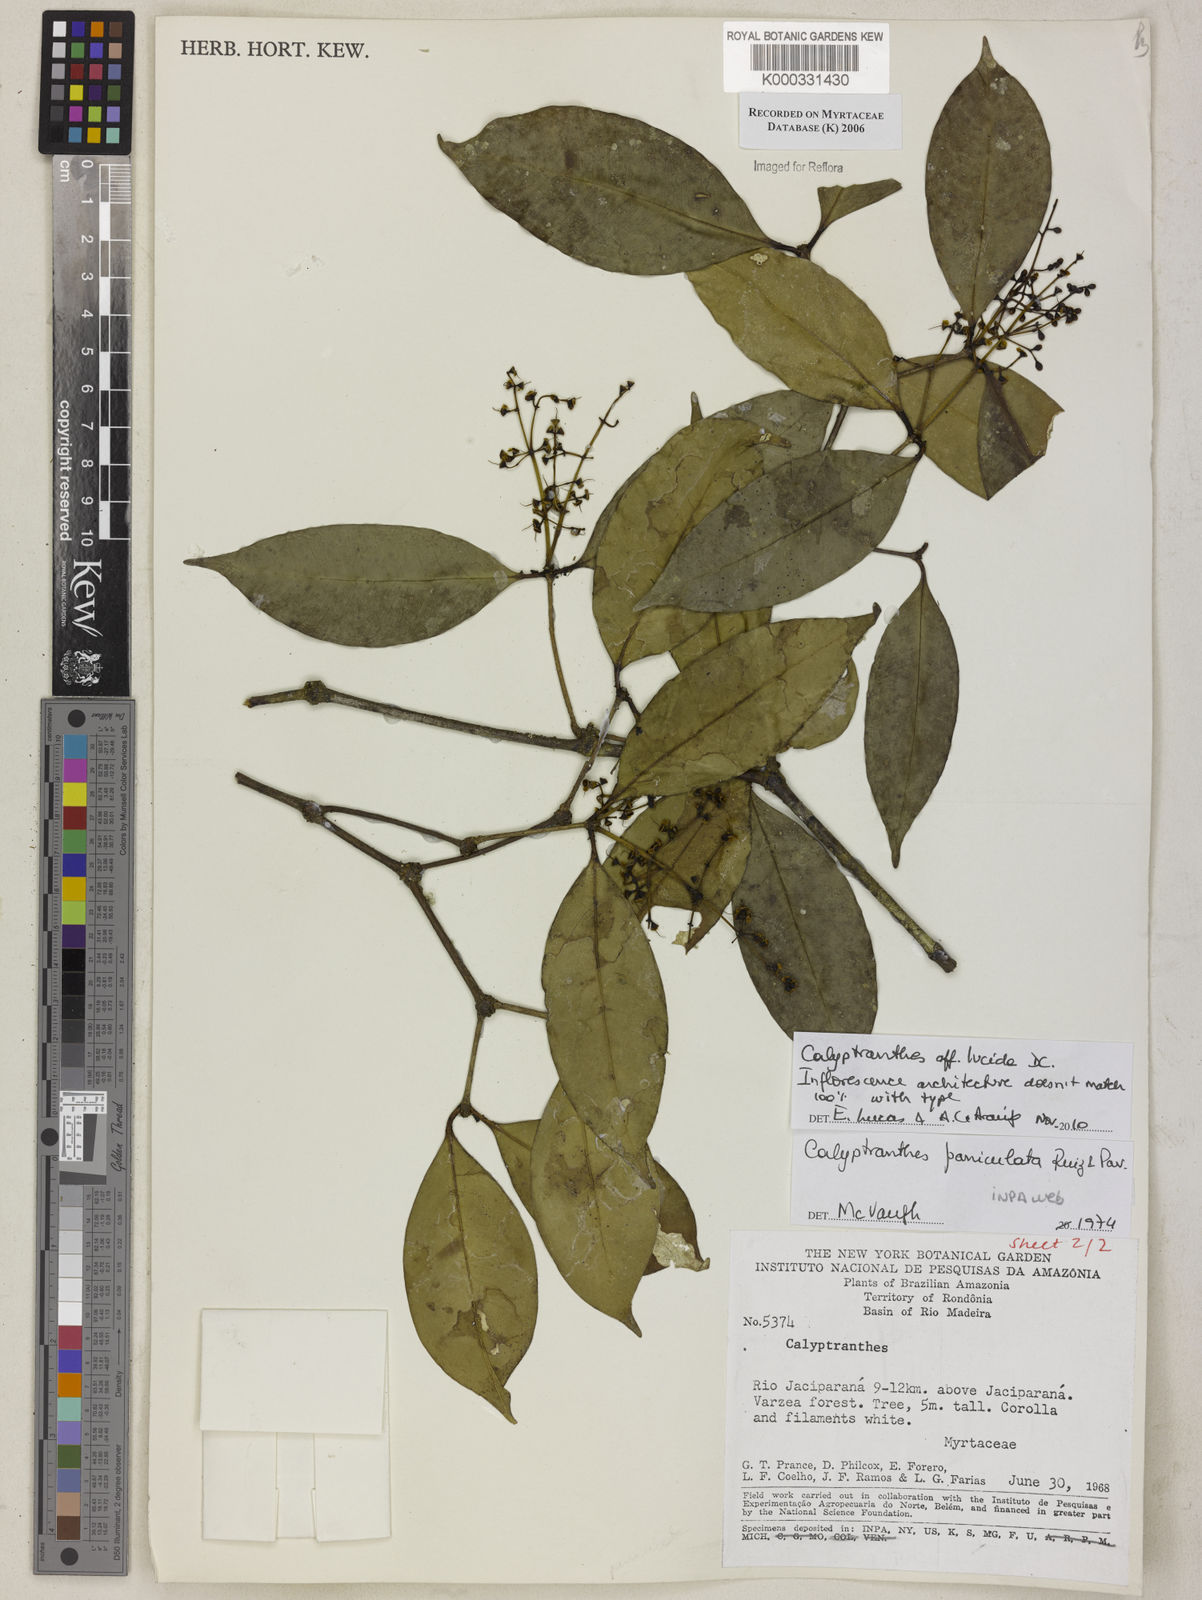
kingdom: Plantae
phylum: Tracheophyta
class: Magnoliopsida
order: Myrtales
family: Myrtaceae
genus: Calyptranthes
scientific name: Calyptranthes
